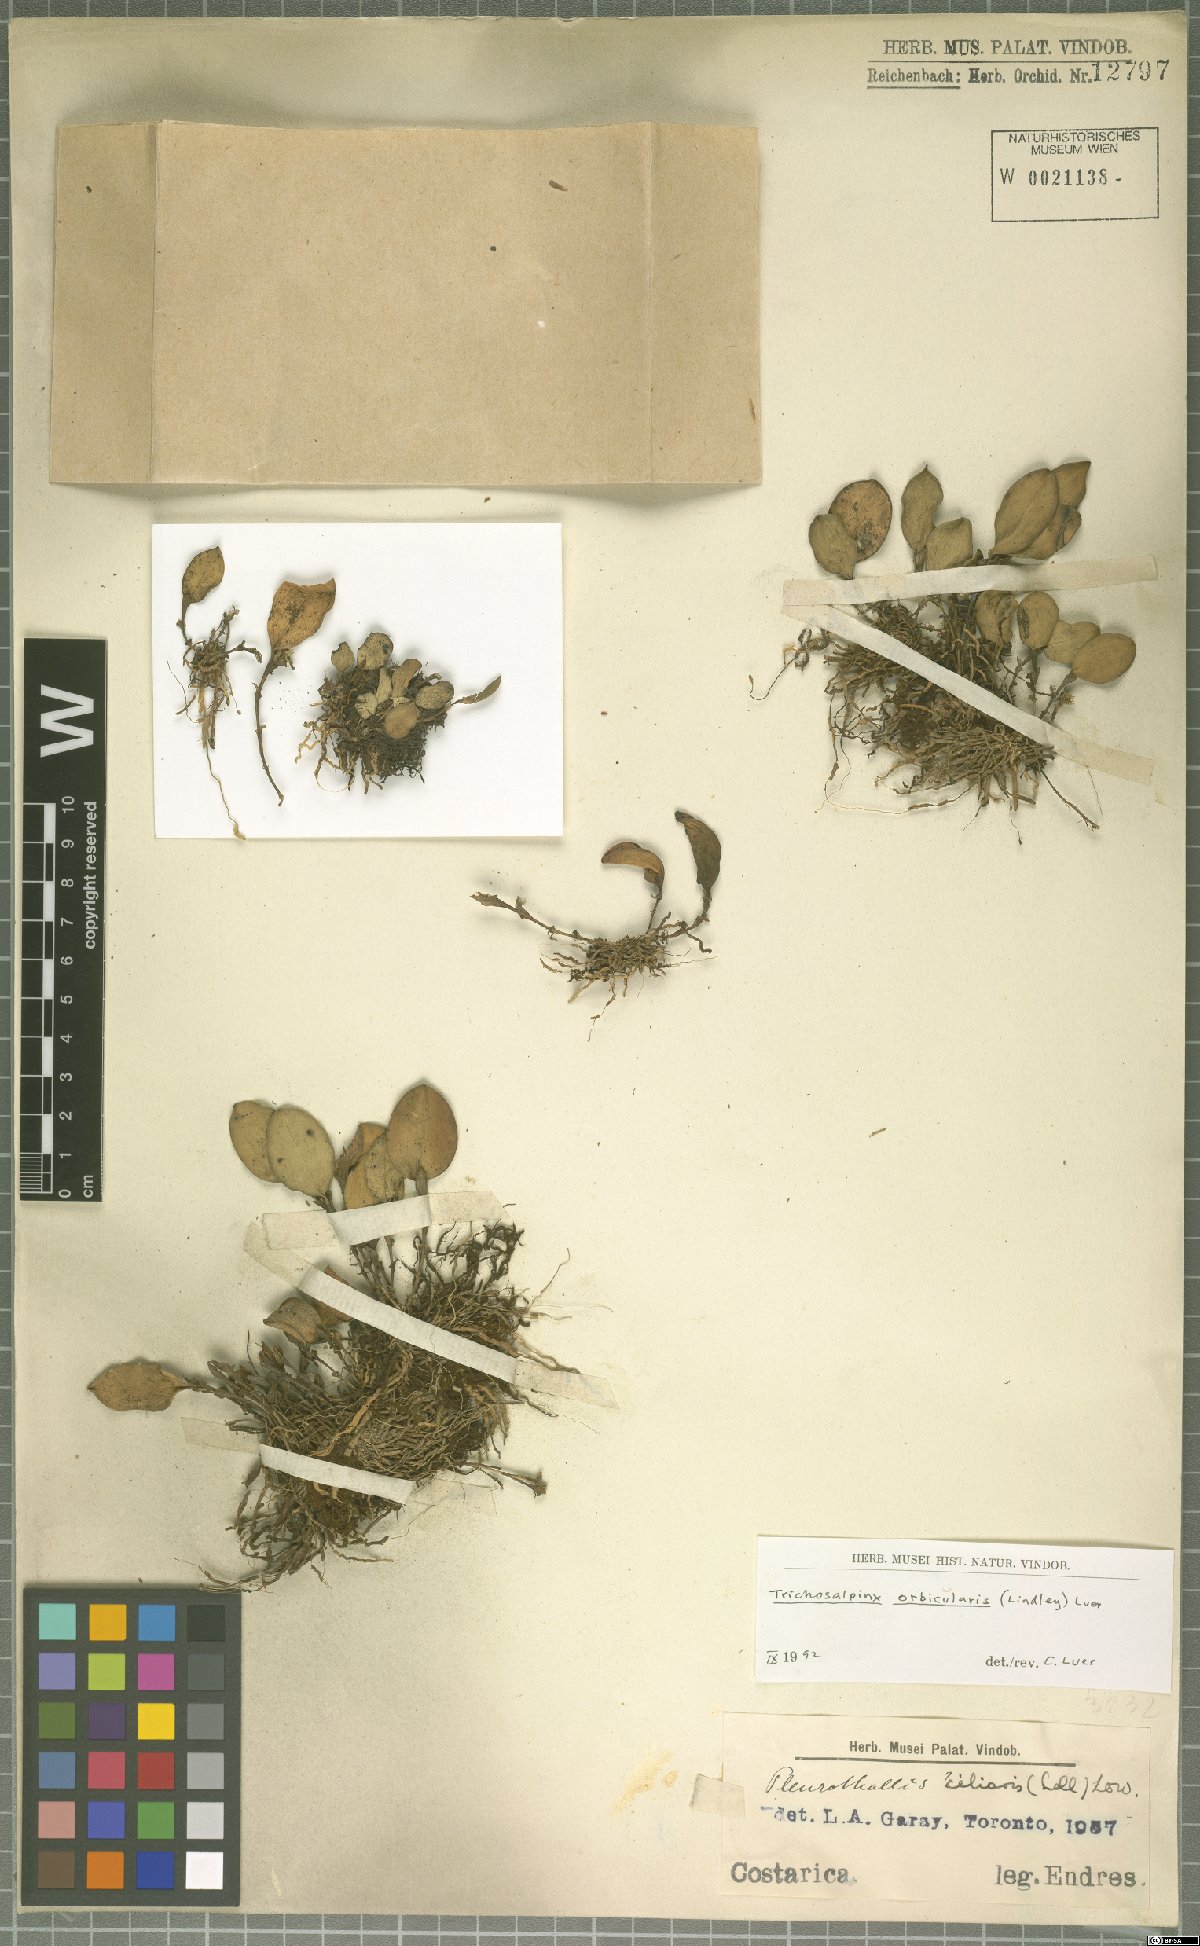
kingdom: Plantae
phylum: Tracheophyta
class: Liliopsida
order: Asparagales
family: Orchidaceae
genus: Trichosalpinx
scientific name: Trichosalpinx orbicularis
